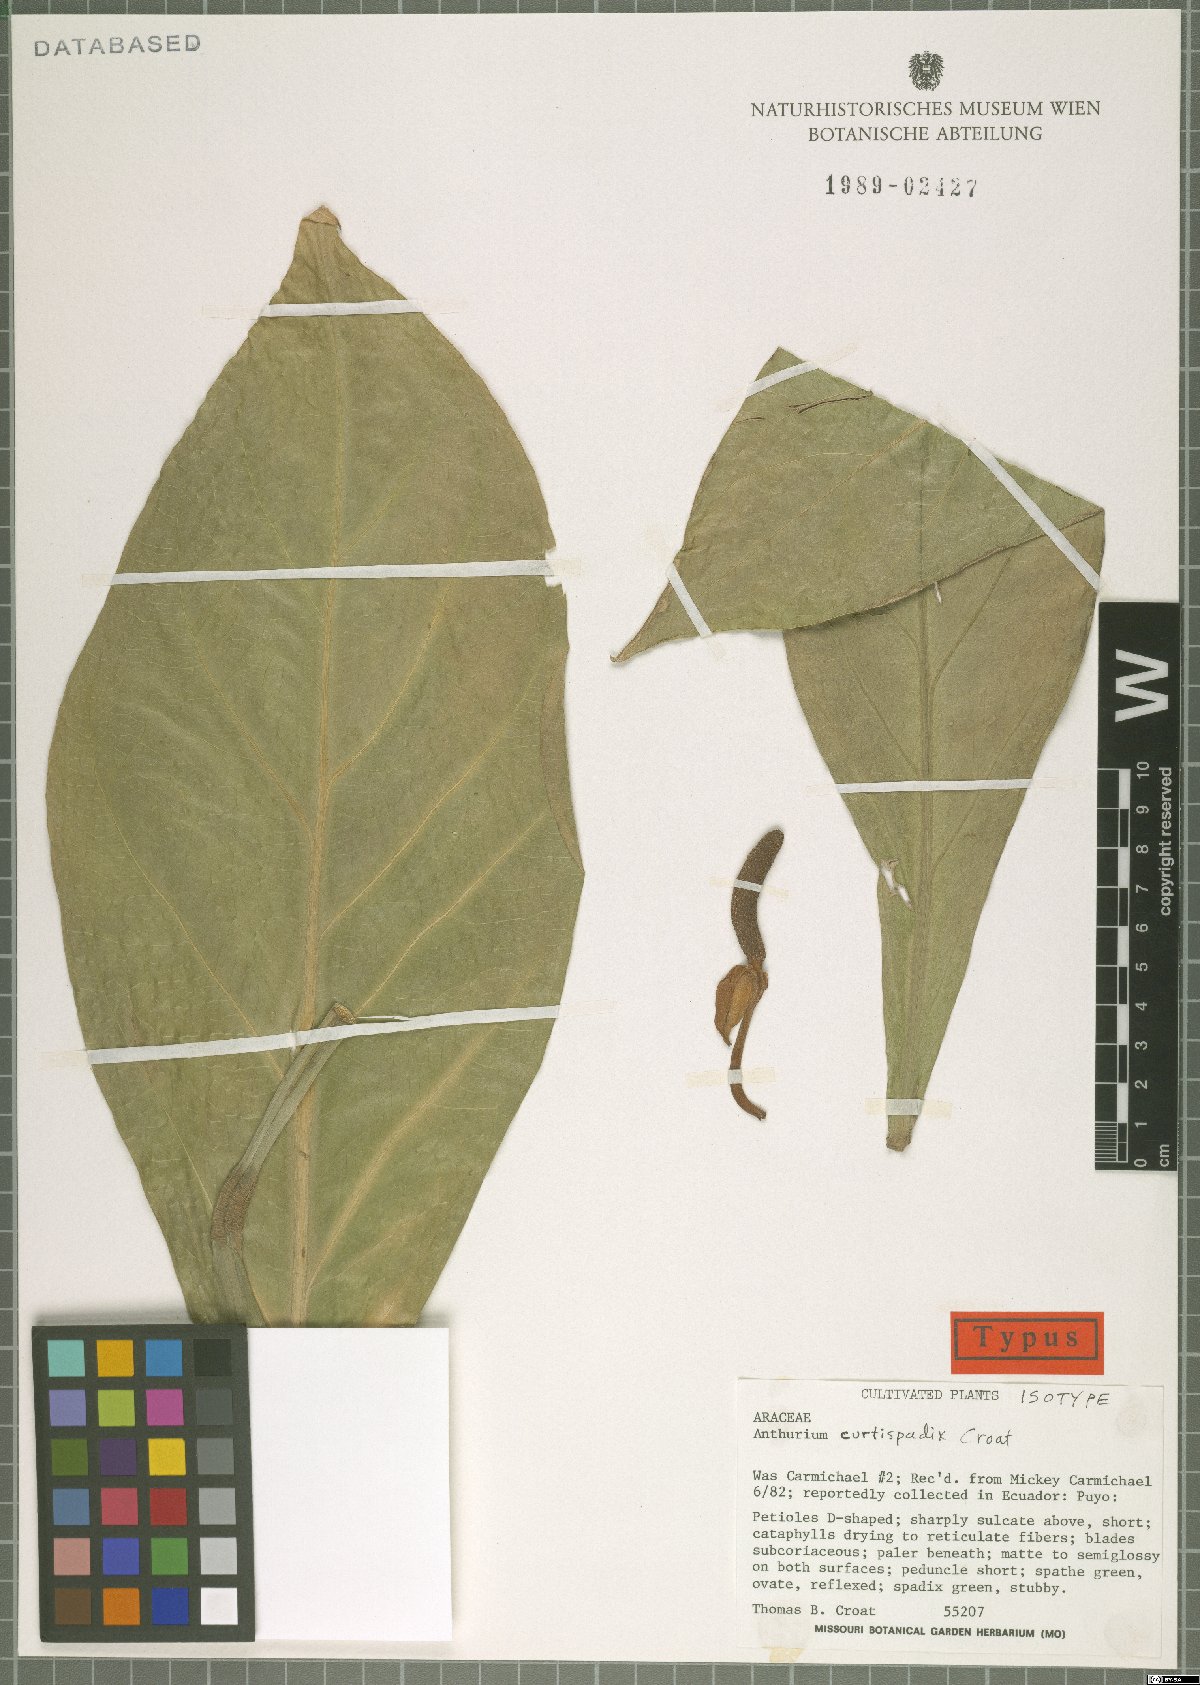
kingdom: Plantae
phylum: Tracheophyta
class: Liliopsida
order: Alismatales
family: Araceae
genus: Anthurium
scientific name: Anthurium curtispadix
